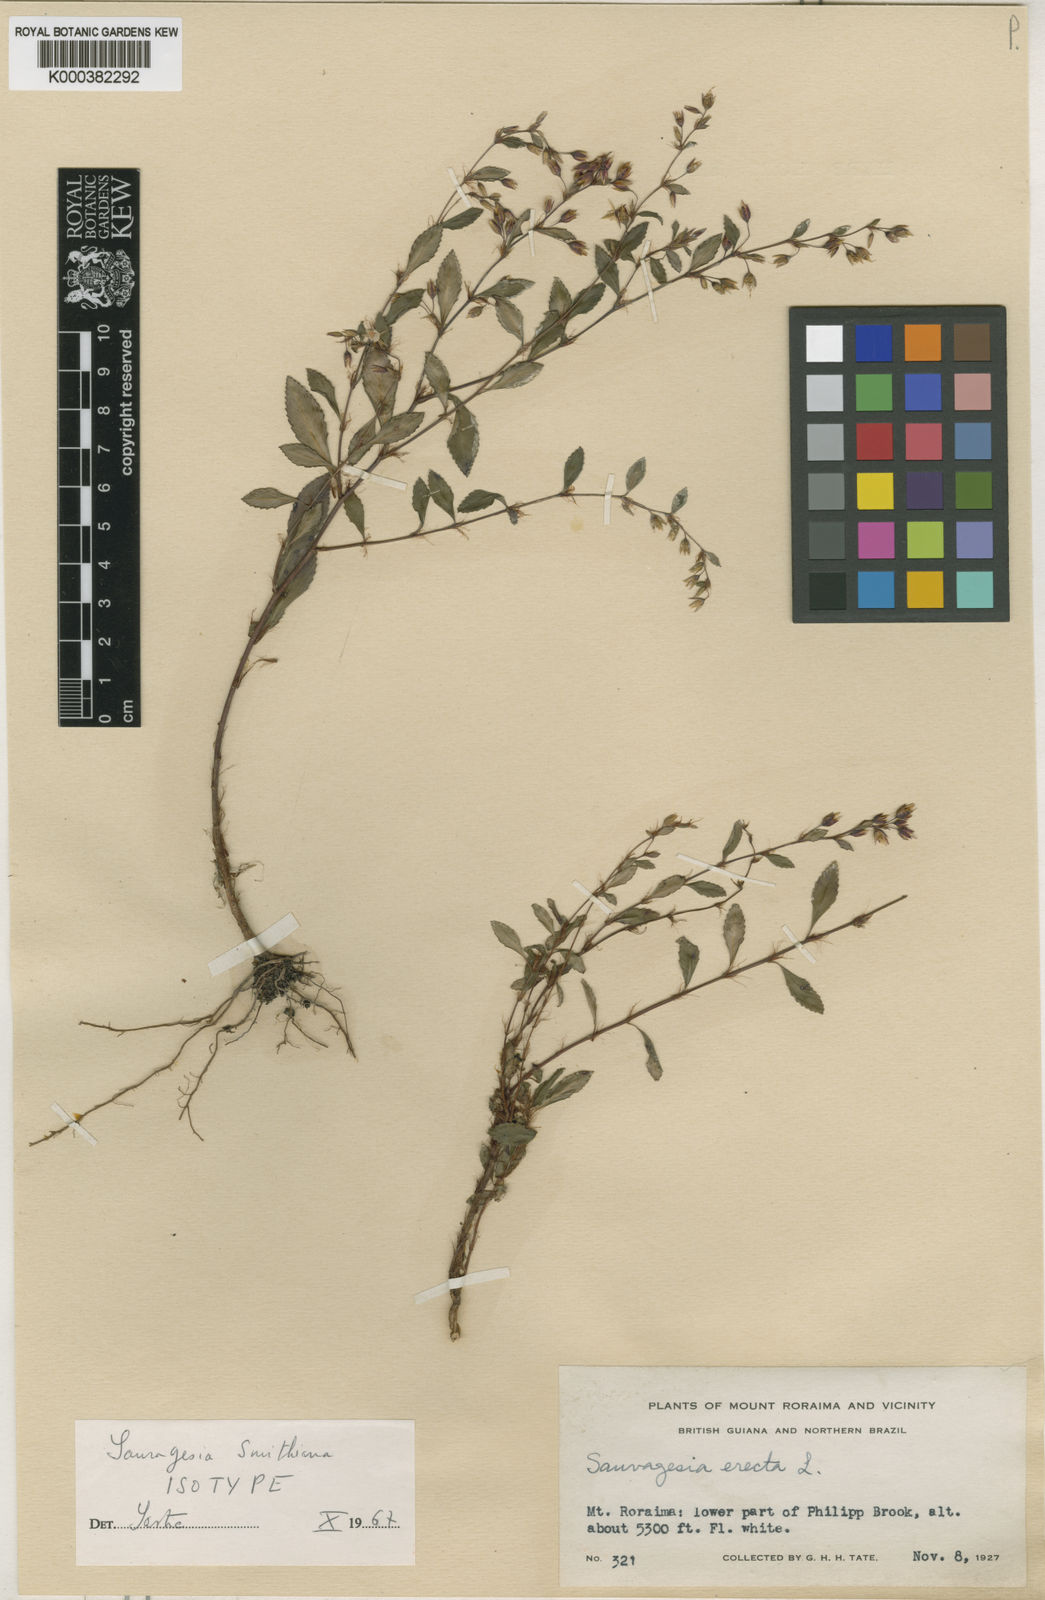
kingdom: Plantae
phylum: Tracheophyta
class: Magnoliopsida
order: Malpighiales
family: Ochnaceae
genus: Sauvagesia
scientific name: Sauvagesia roraimensis
